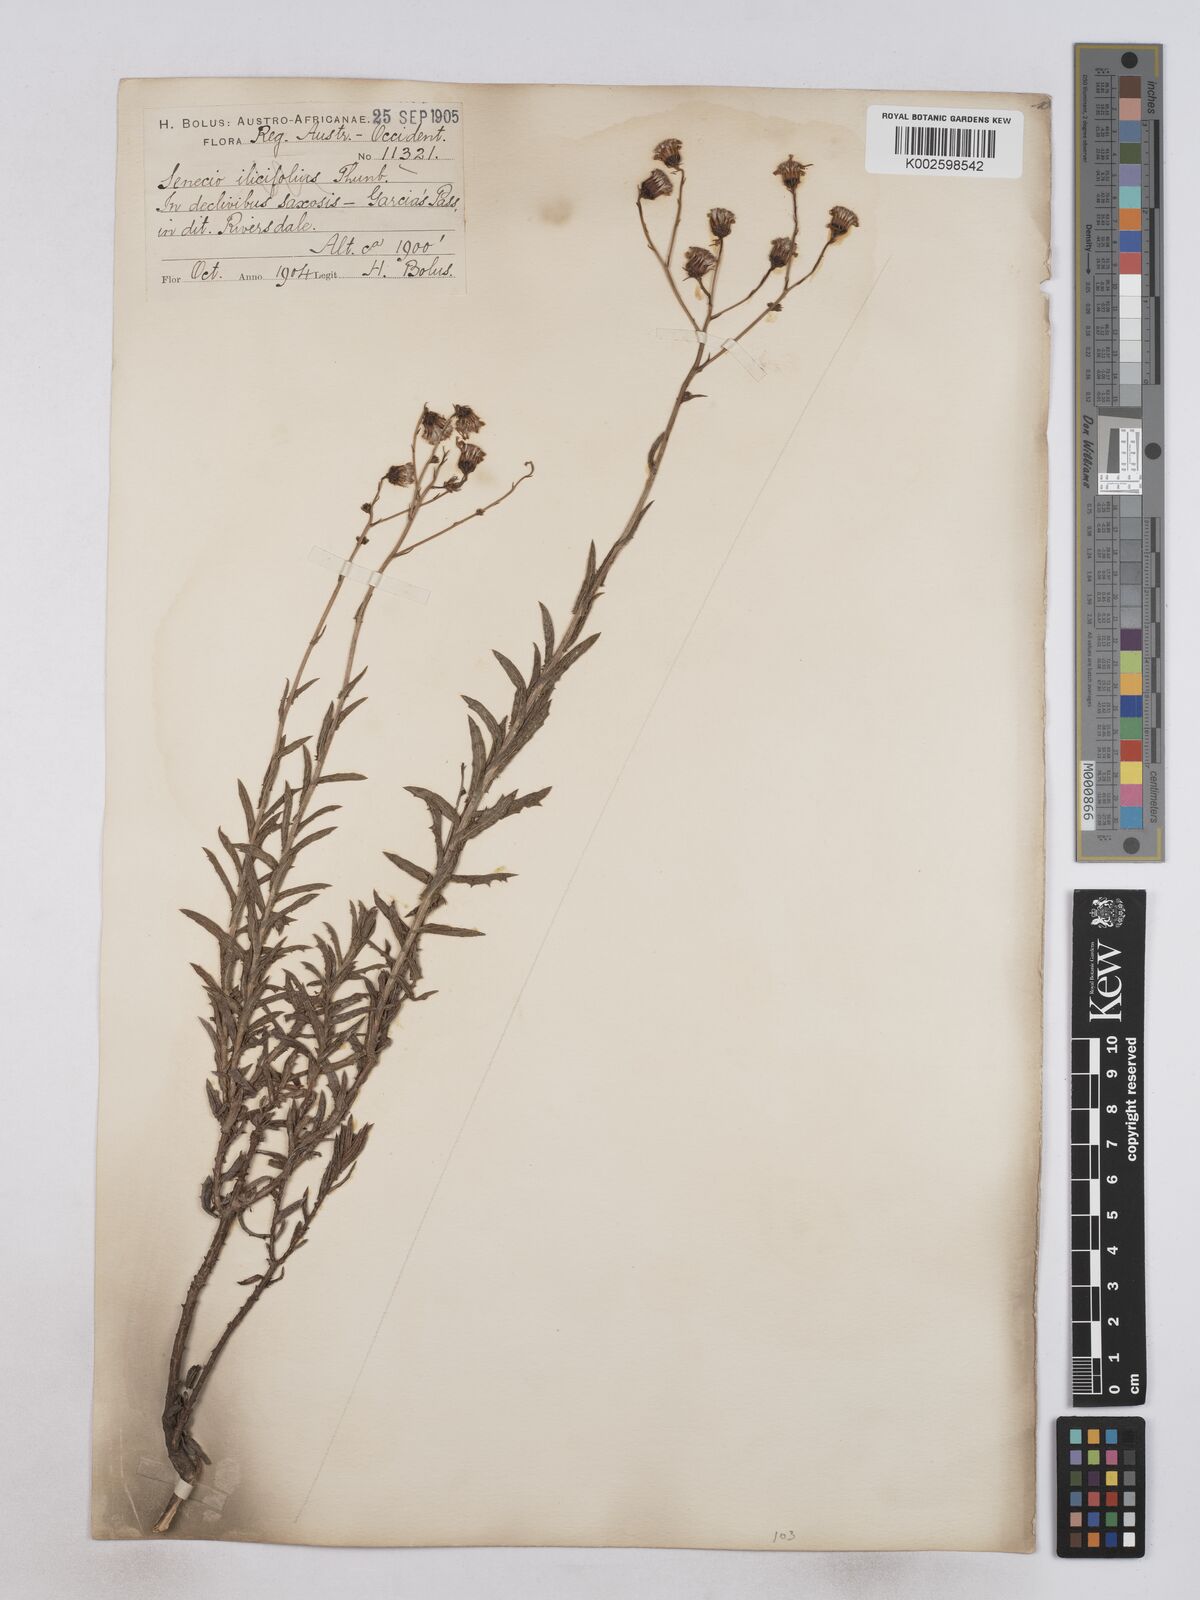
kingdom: Plantae
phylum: Tracheophyta
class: Magnoliopsida
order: Asterales
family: Asteraceae
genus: Senecio
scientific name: Senecio juniperinus
